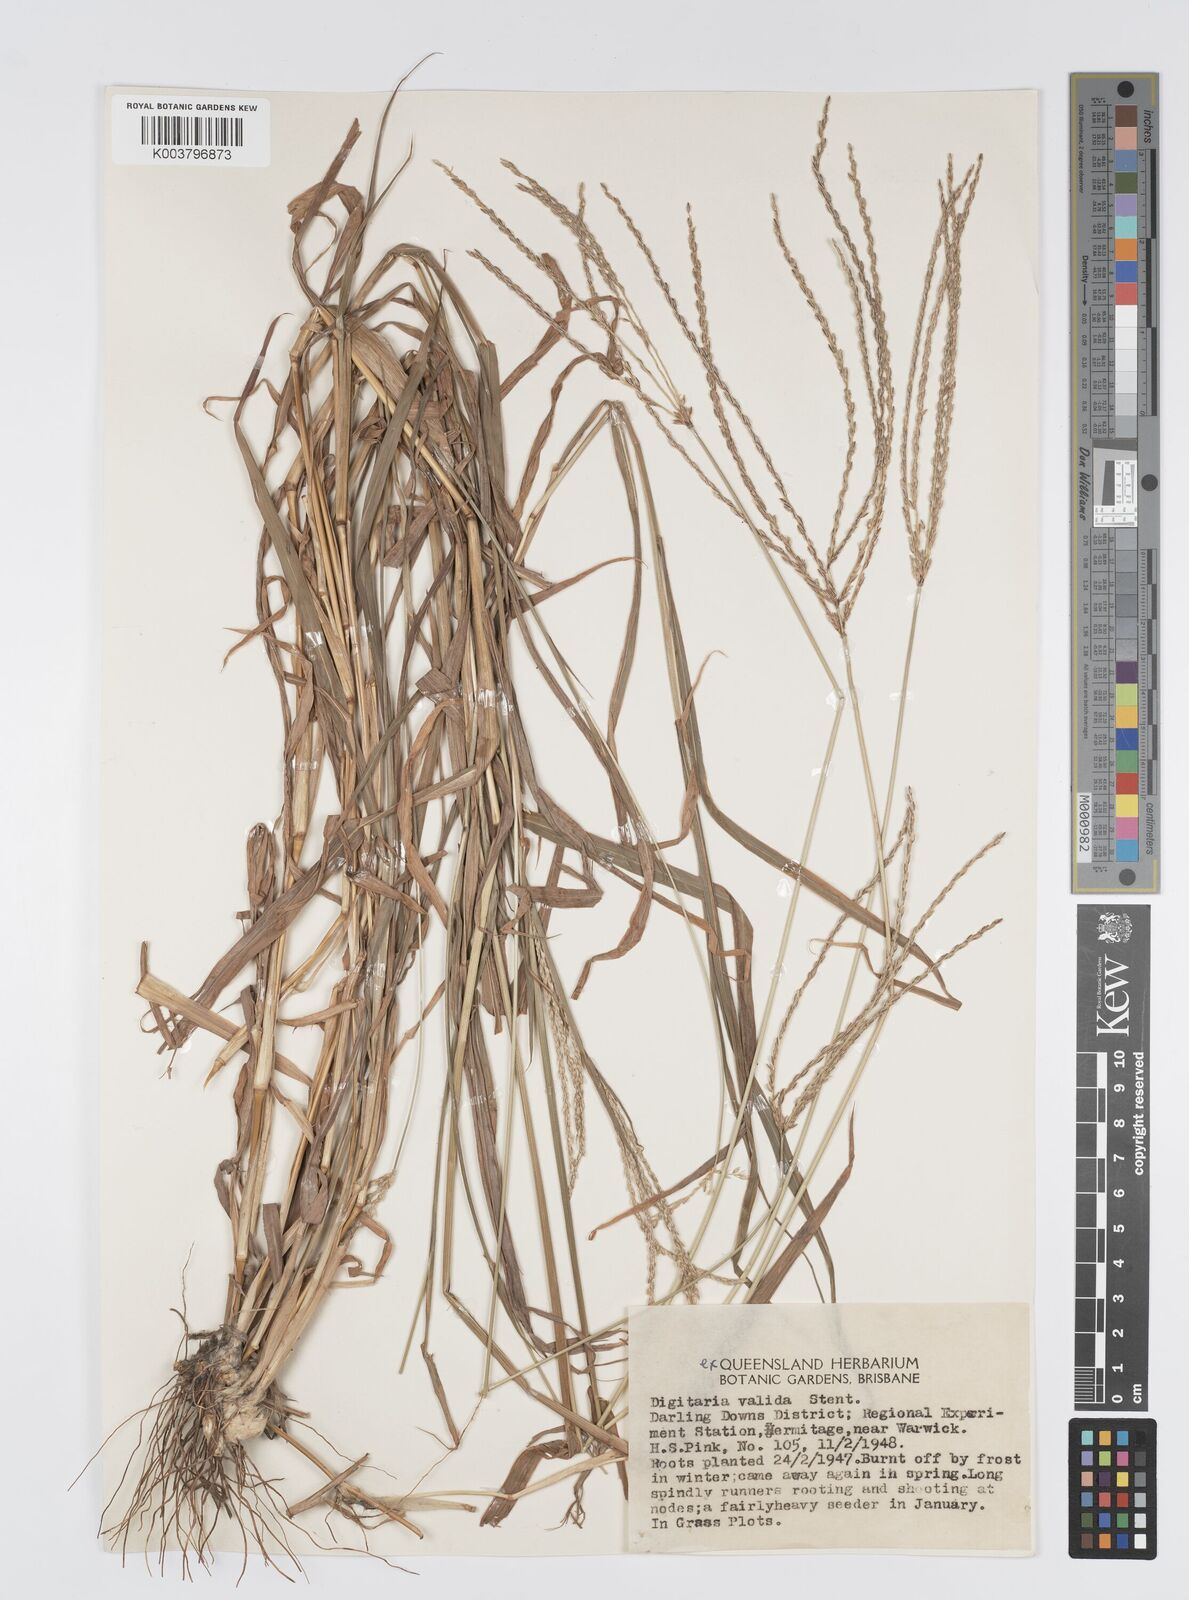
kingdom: Plantae
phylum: Tracheophyta
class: Liliopsida
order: Poales
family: Poaceae
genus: Digitaria
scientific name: Digitaria eriantha
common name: Digitgrass
